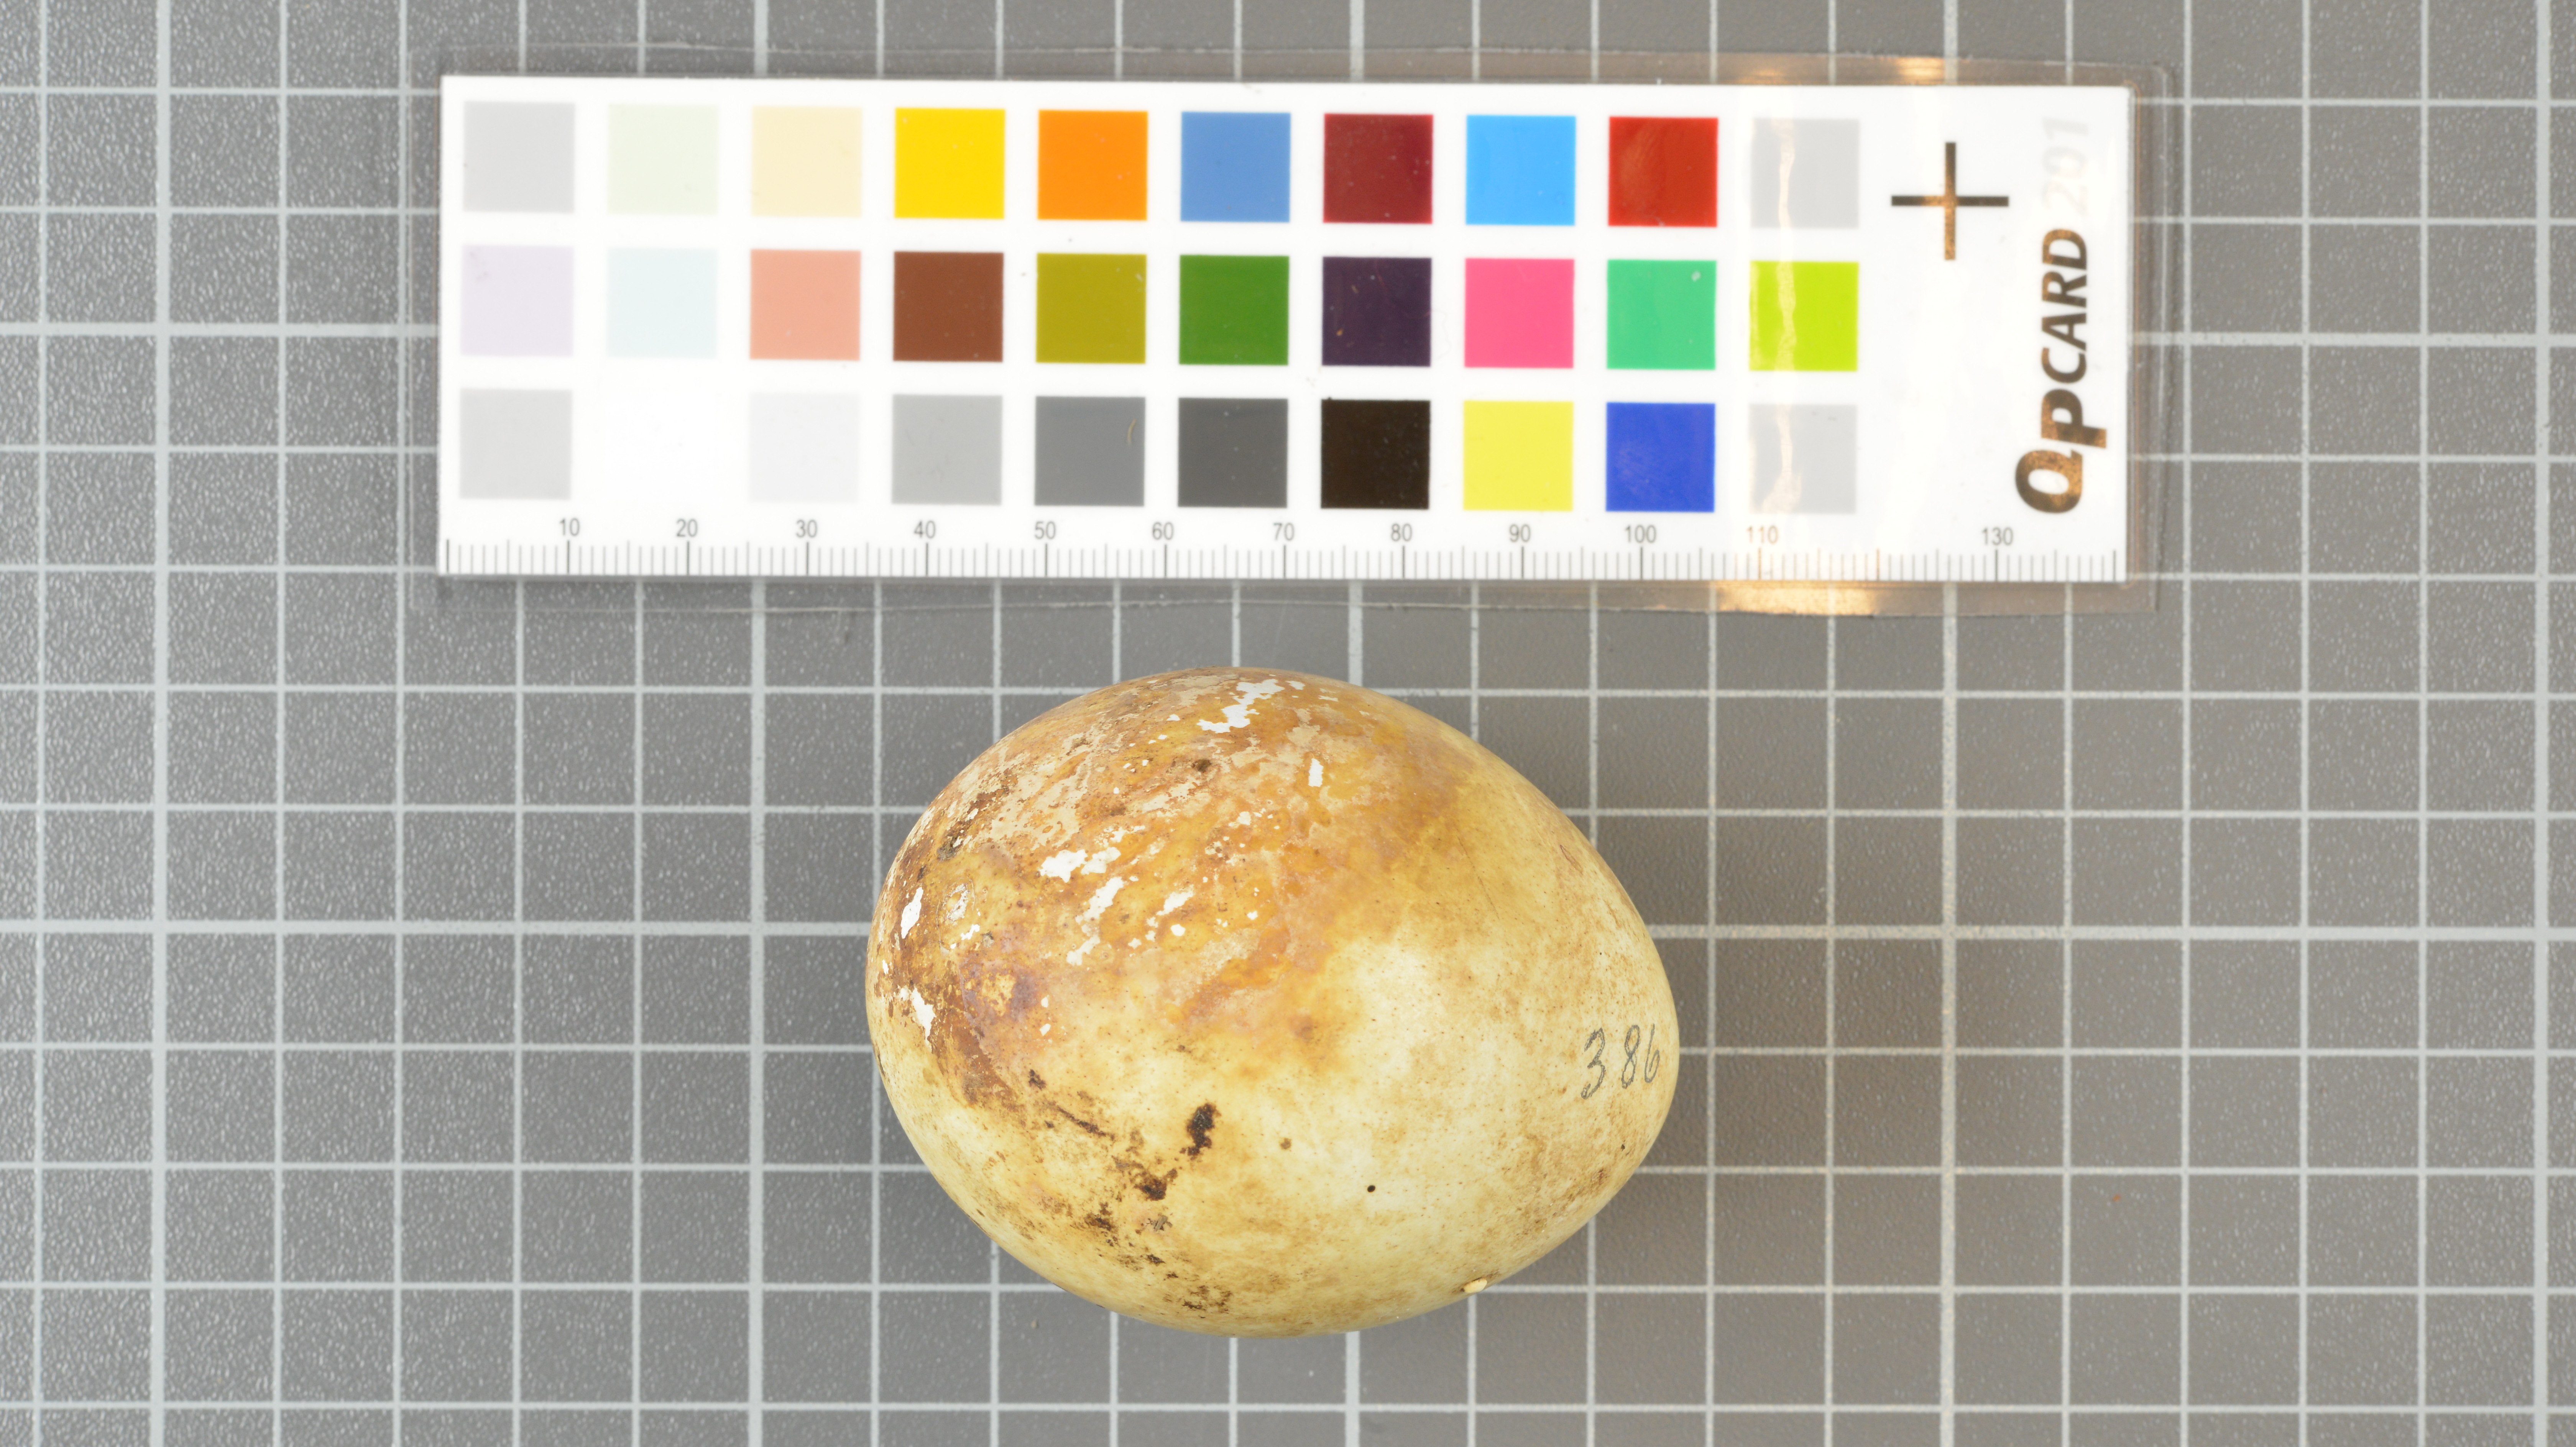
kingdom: Animalia
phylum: Chordata
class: Aves
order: Sphenisciformes
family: Spheniscidae
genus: Eudyptes
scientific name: Eudyptes moseleyi
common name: Northern rockhopper penguin
